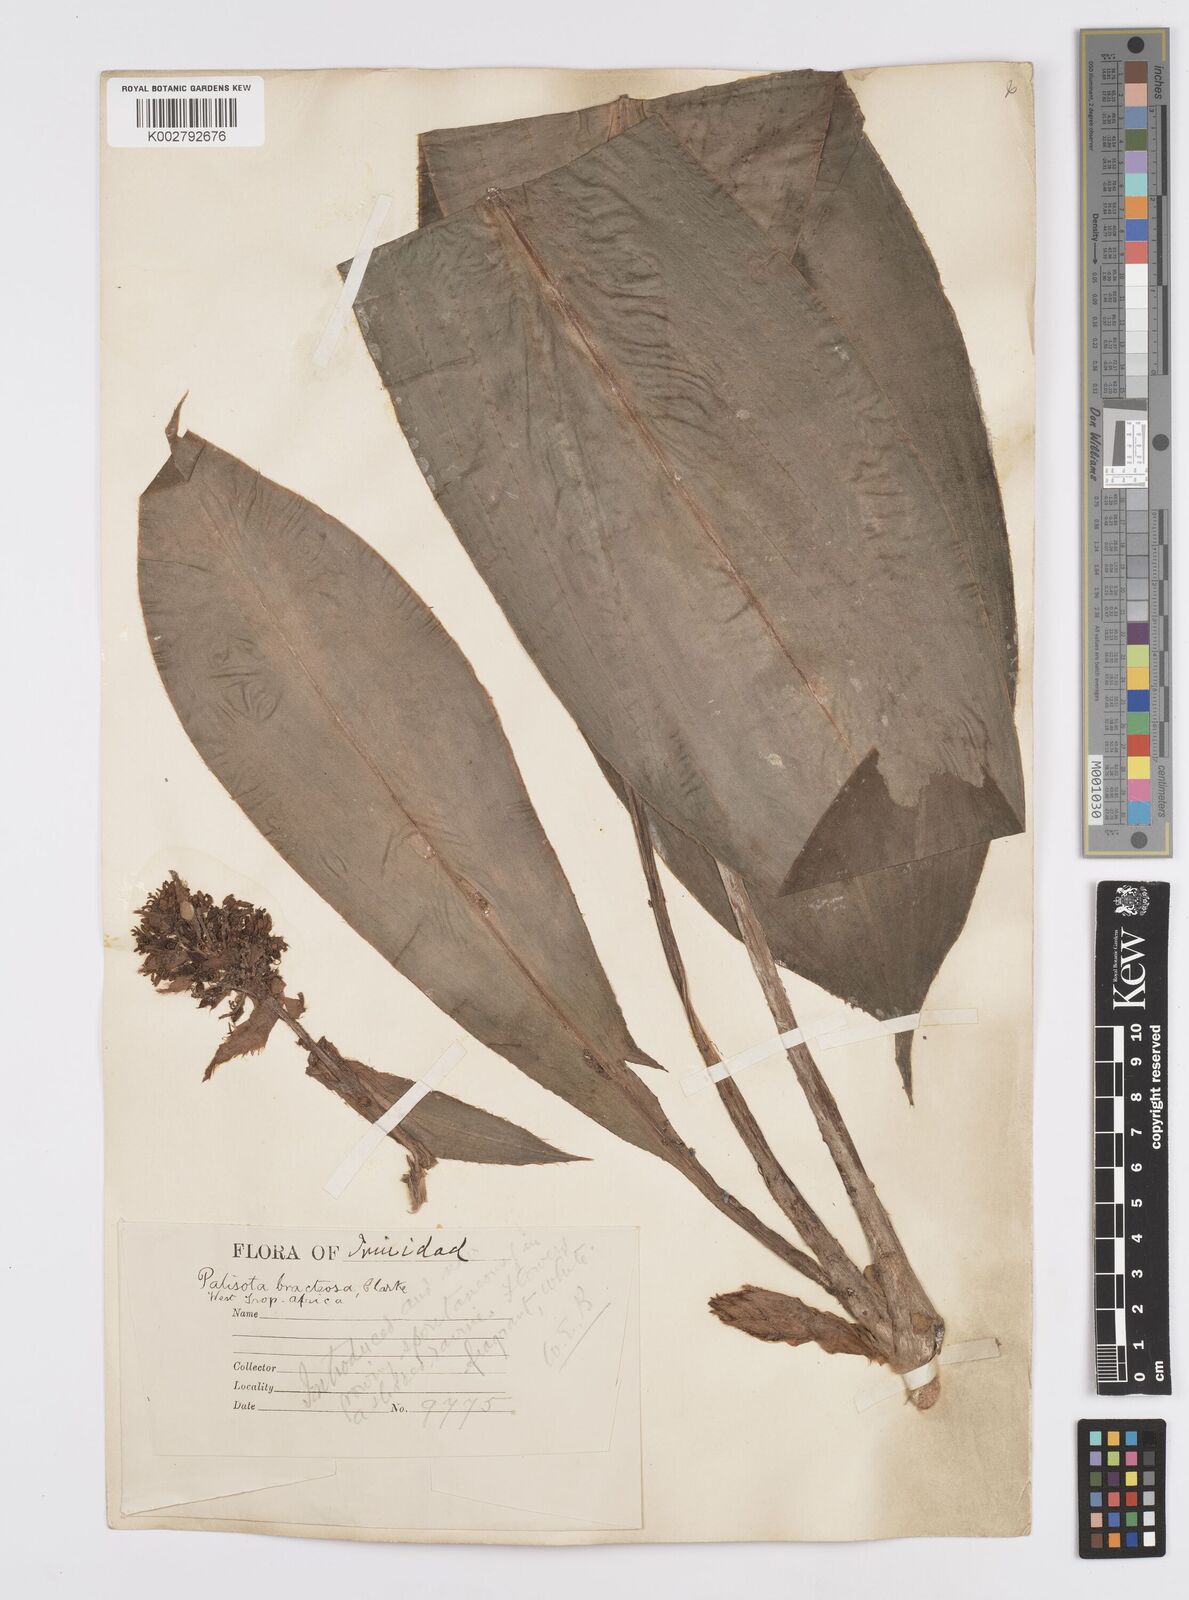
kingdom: Plantae
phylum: Tracheophyta
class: Liliopsida
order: Commelinales
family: Commelinaceae
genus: Palisota
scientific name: Palisota bracteosa
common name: Palisota
